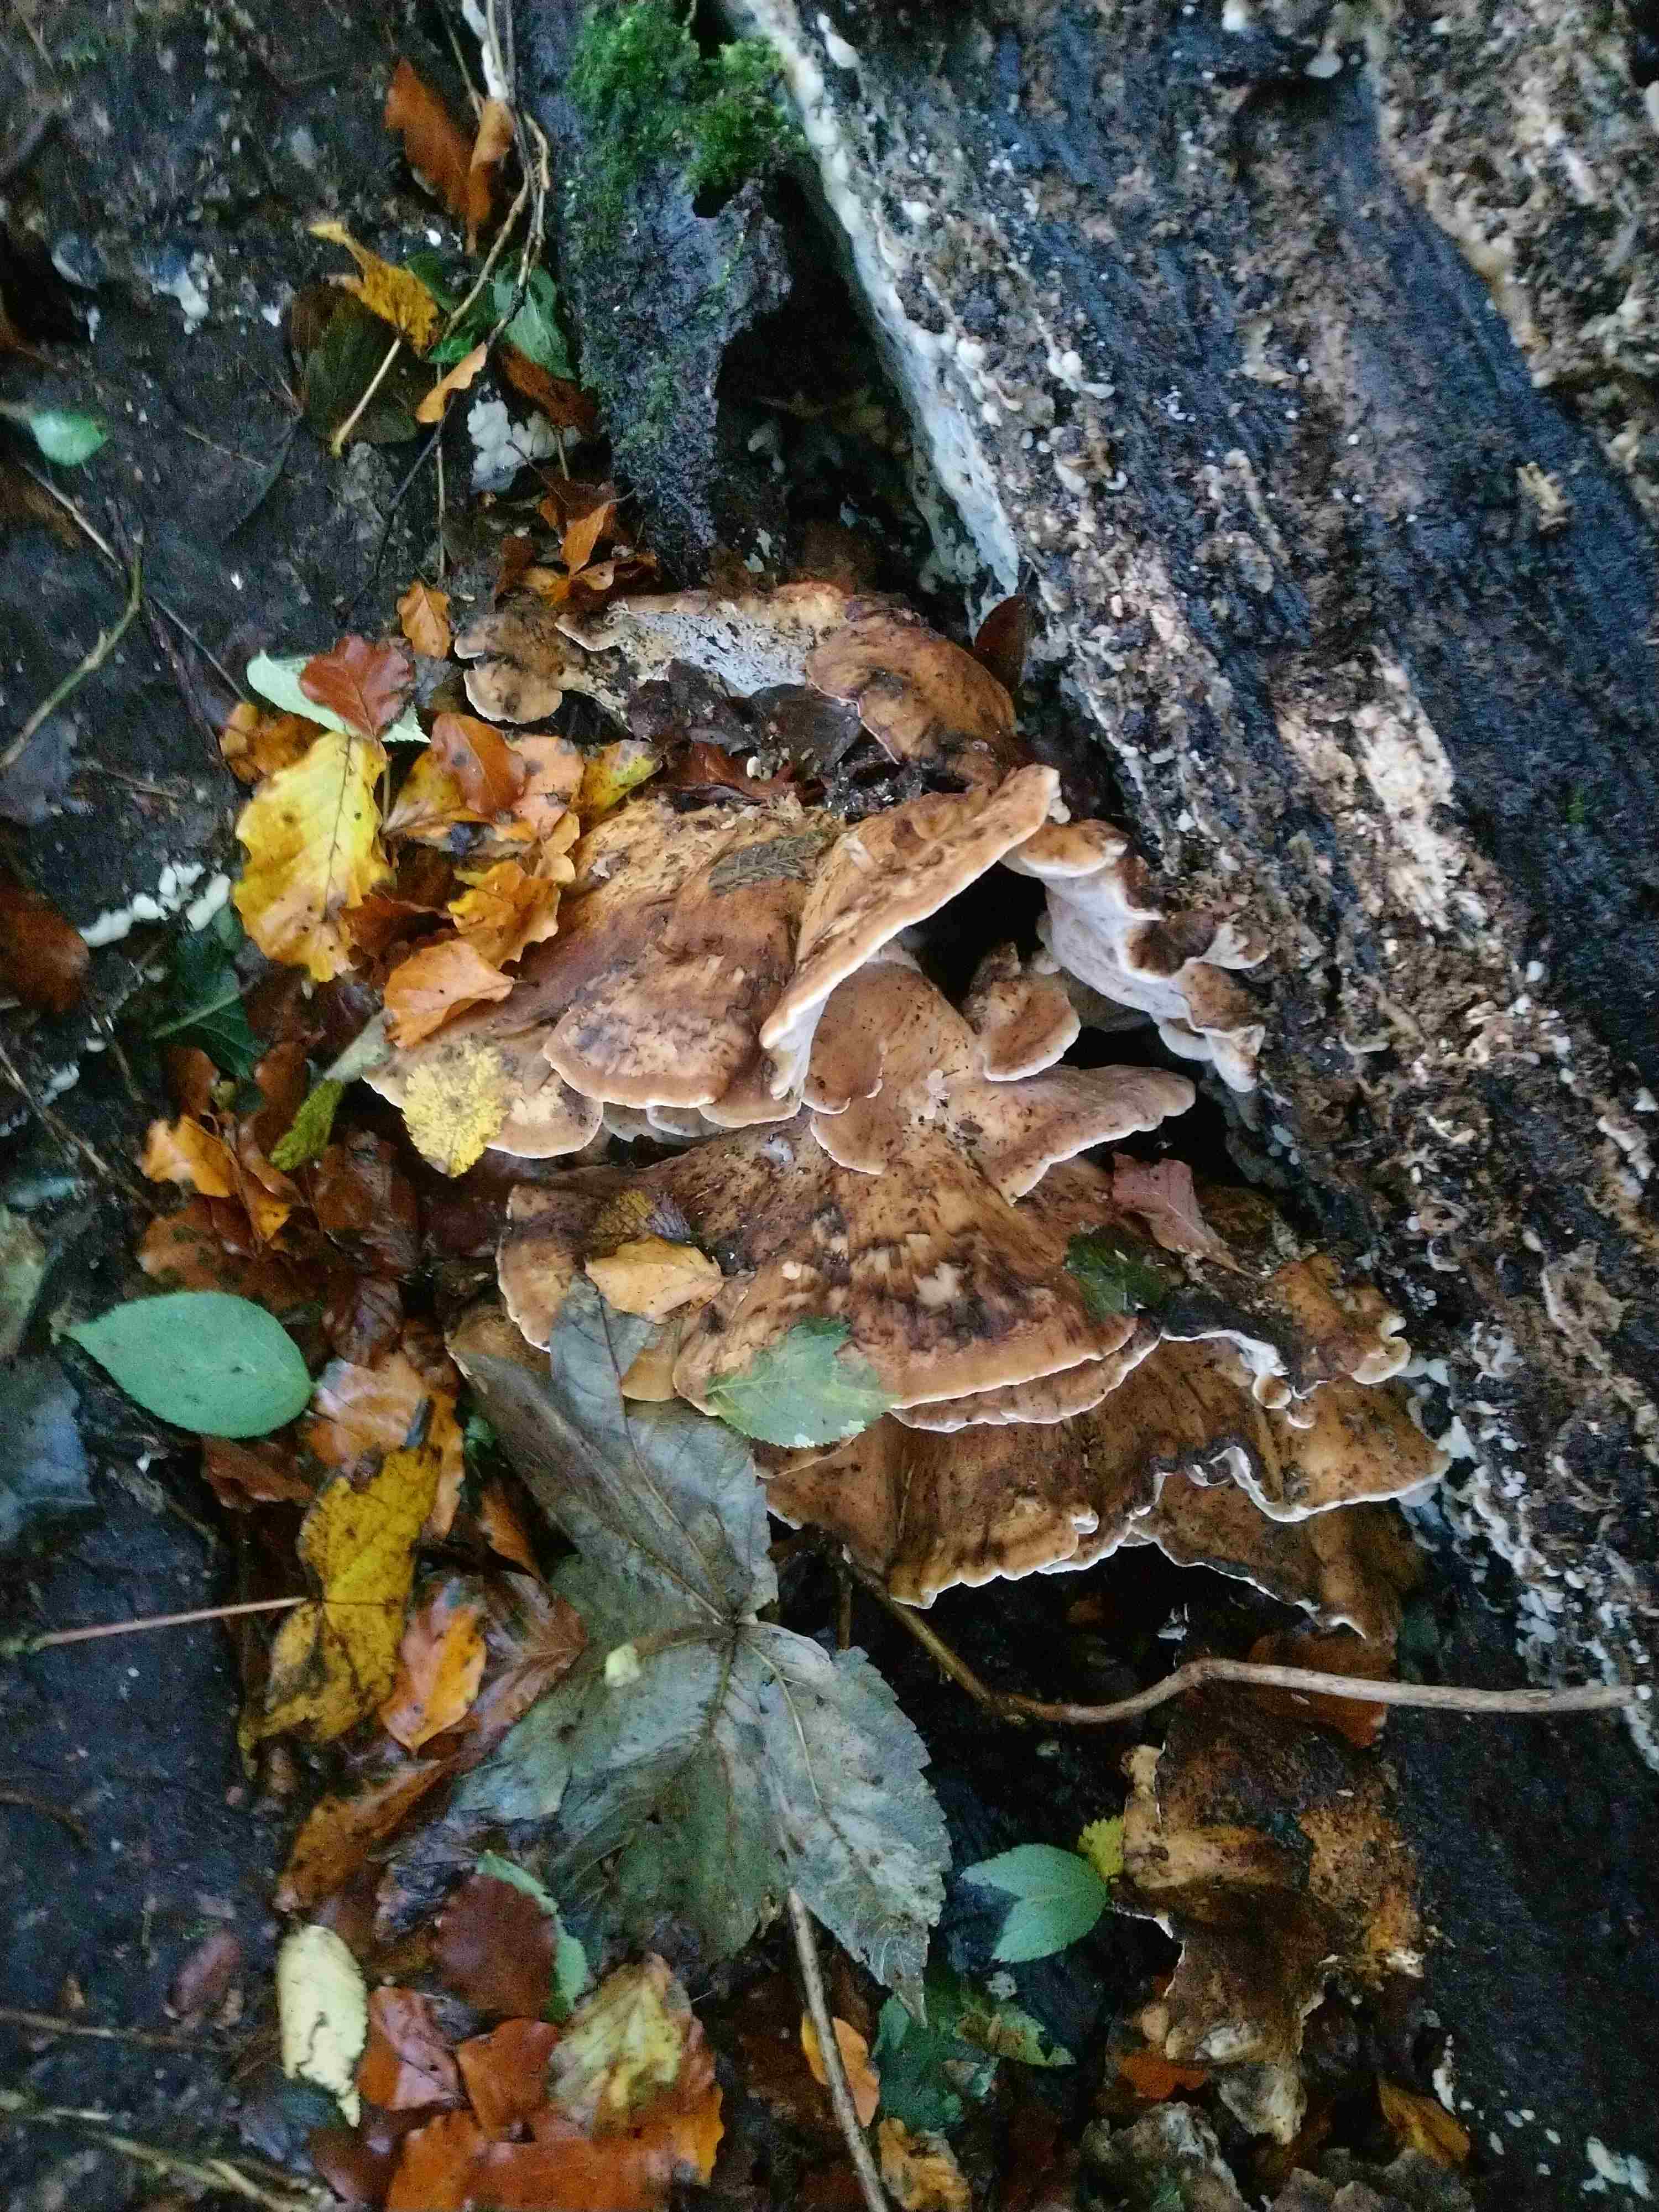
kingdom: Fungi
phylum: Basidiomycota
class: Agaricomycetes
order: Polyporales
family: Meripilaceae
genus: Meripilus
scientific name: Meripilus giganteus
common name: kæmpeporesvamp
